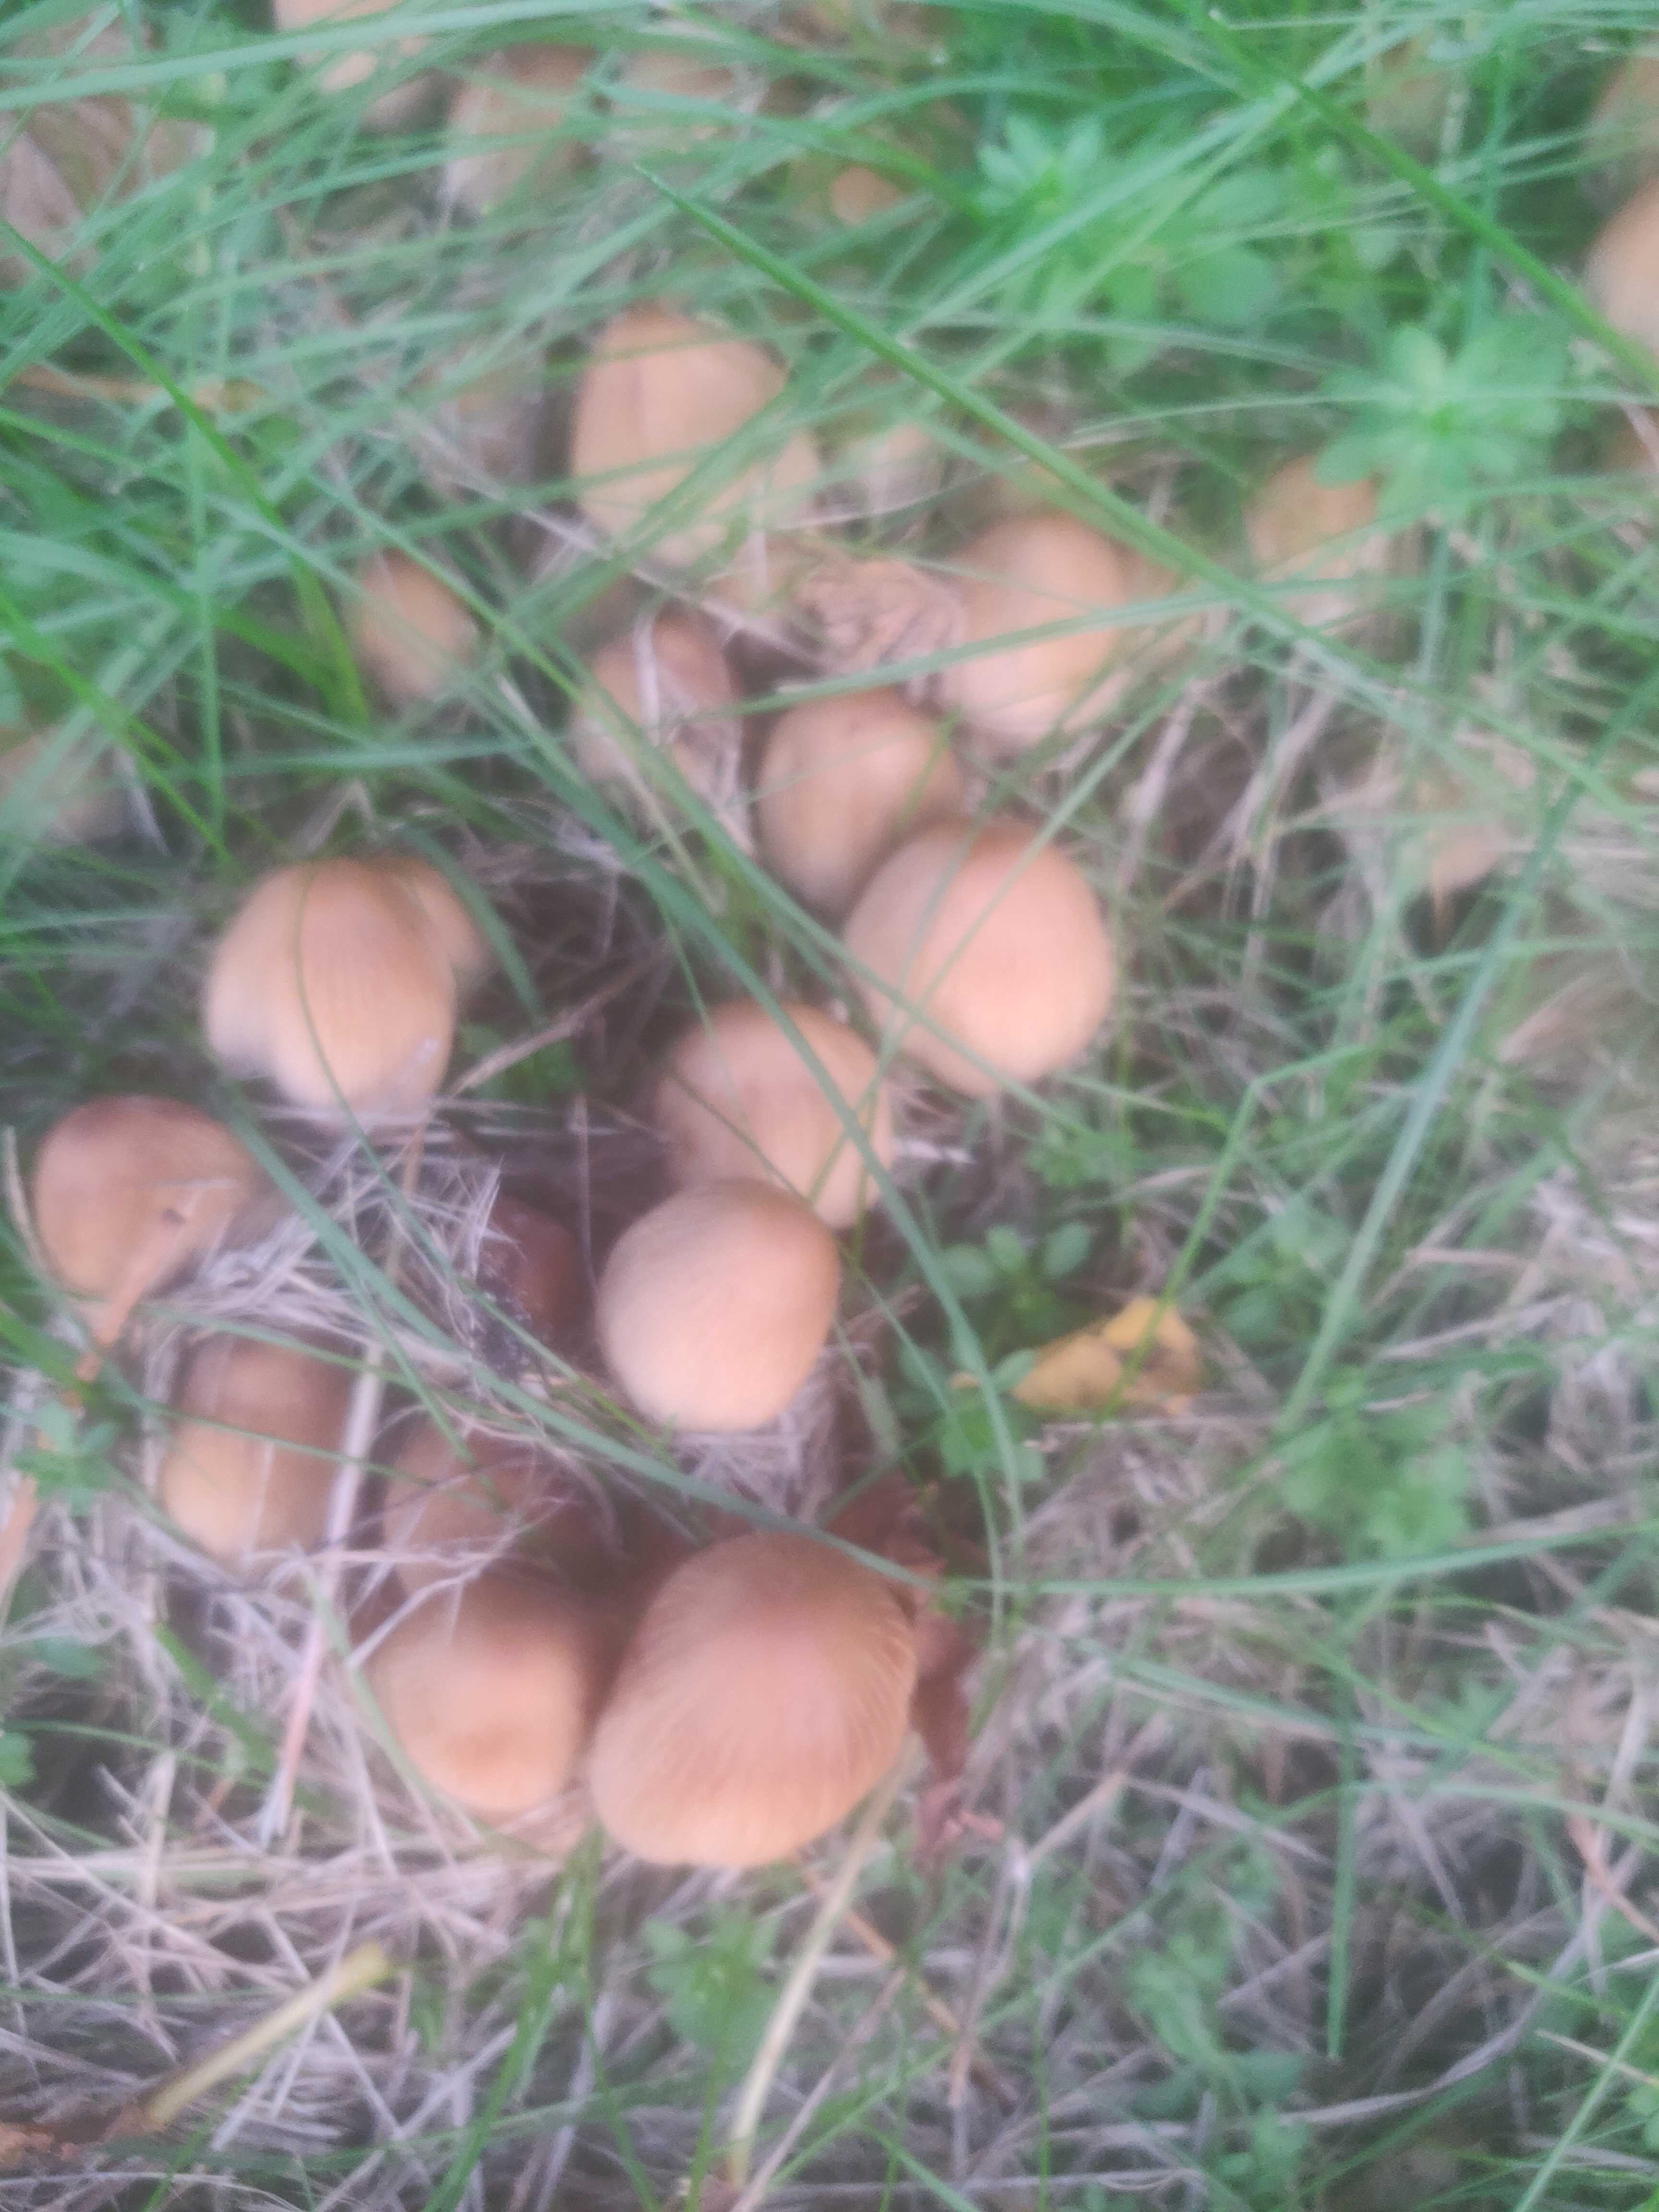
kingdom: Fungi
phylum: Basidiomycota
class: Agaricomycetes
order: Agaricales
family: Psathyrellaceae
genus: Coprinellus
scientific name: Coprinellus
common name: blækhat
